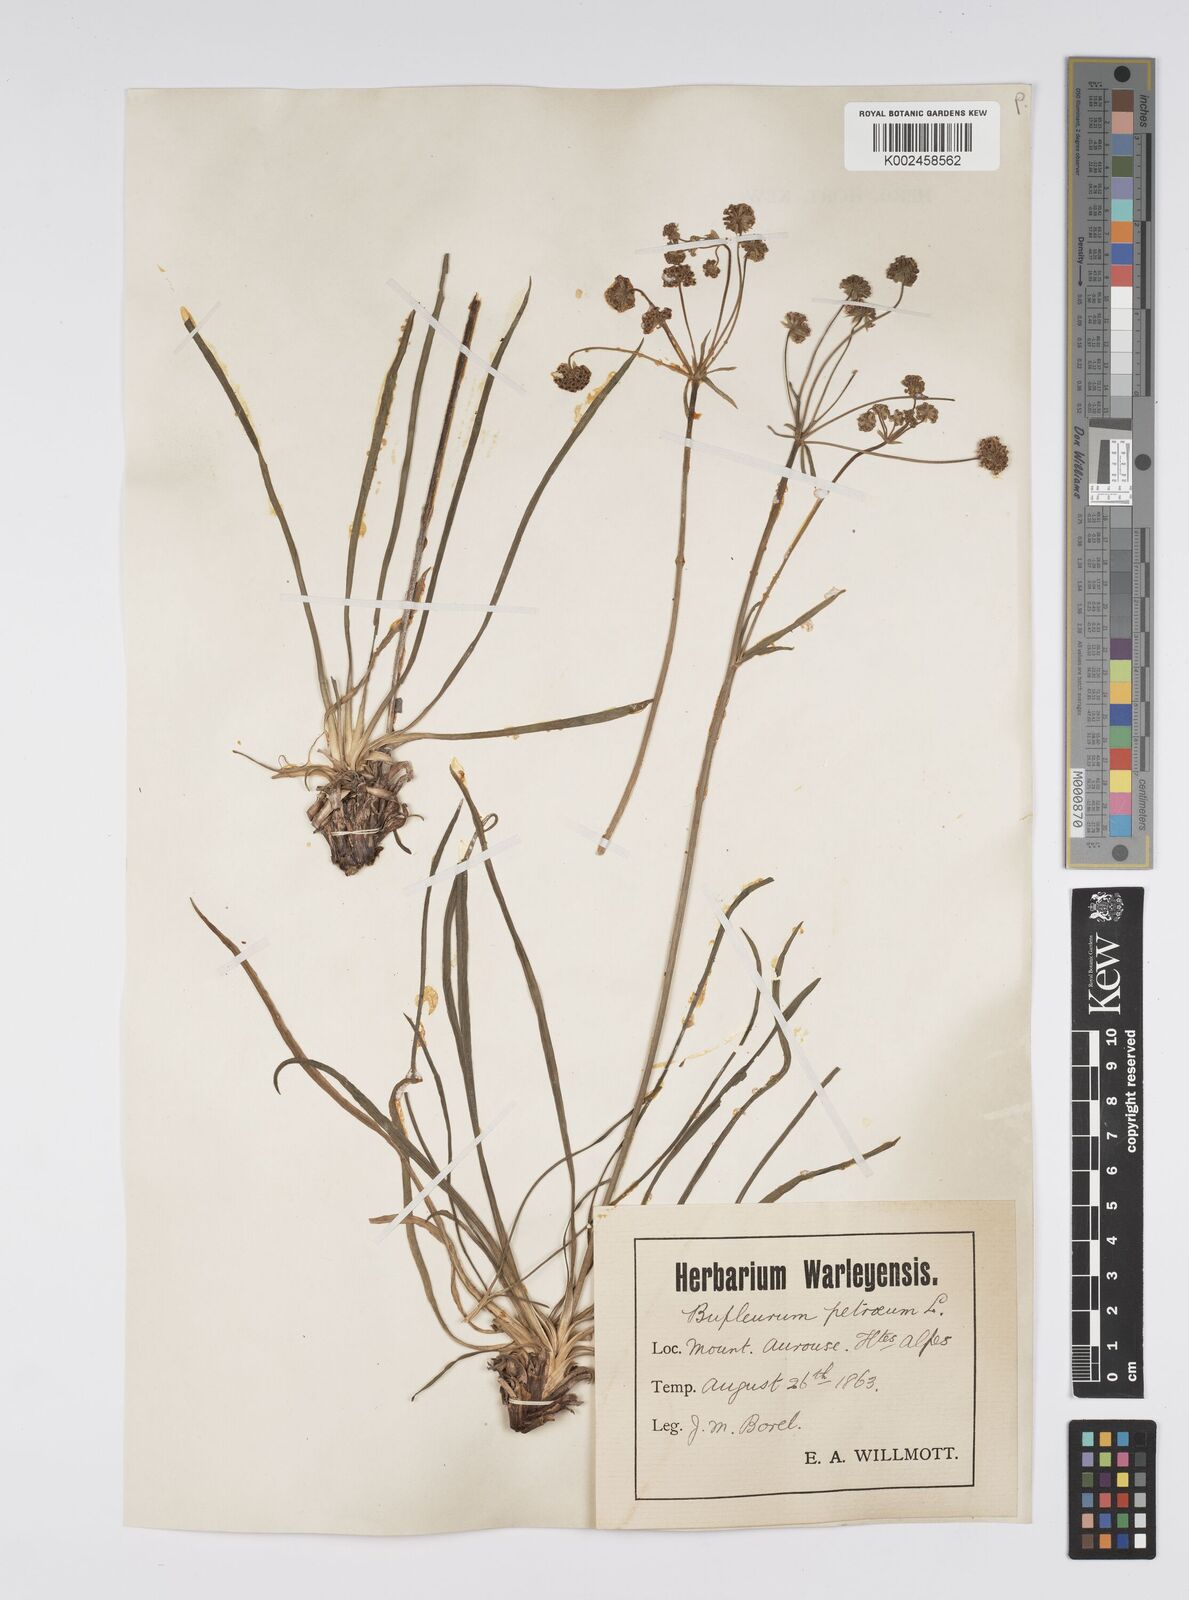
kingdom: Plantae
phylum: Tracheophyta
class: Magnoliopsida
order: Apiales
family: Apiaceae
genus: Bupleurum
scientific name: Bupleurum petraeum
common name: Rock hare's-ear
